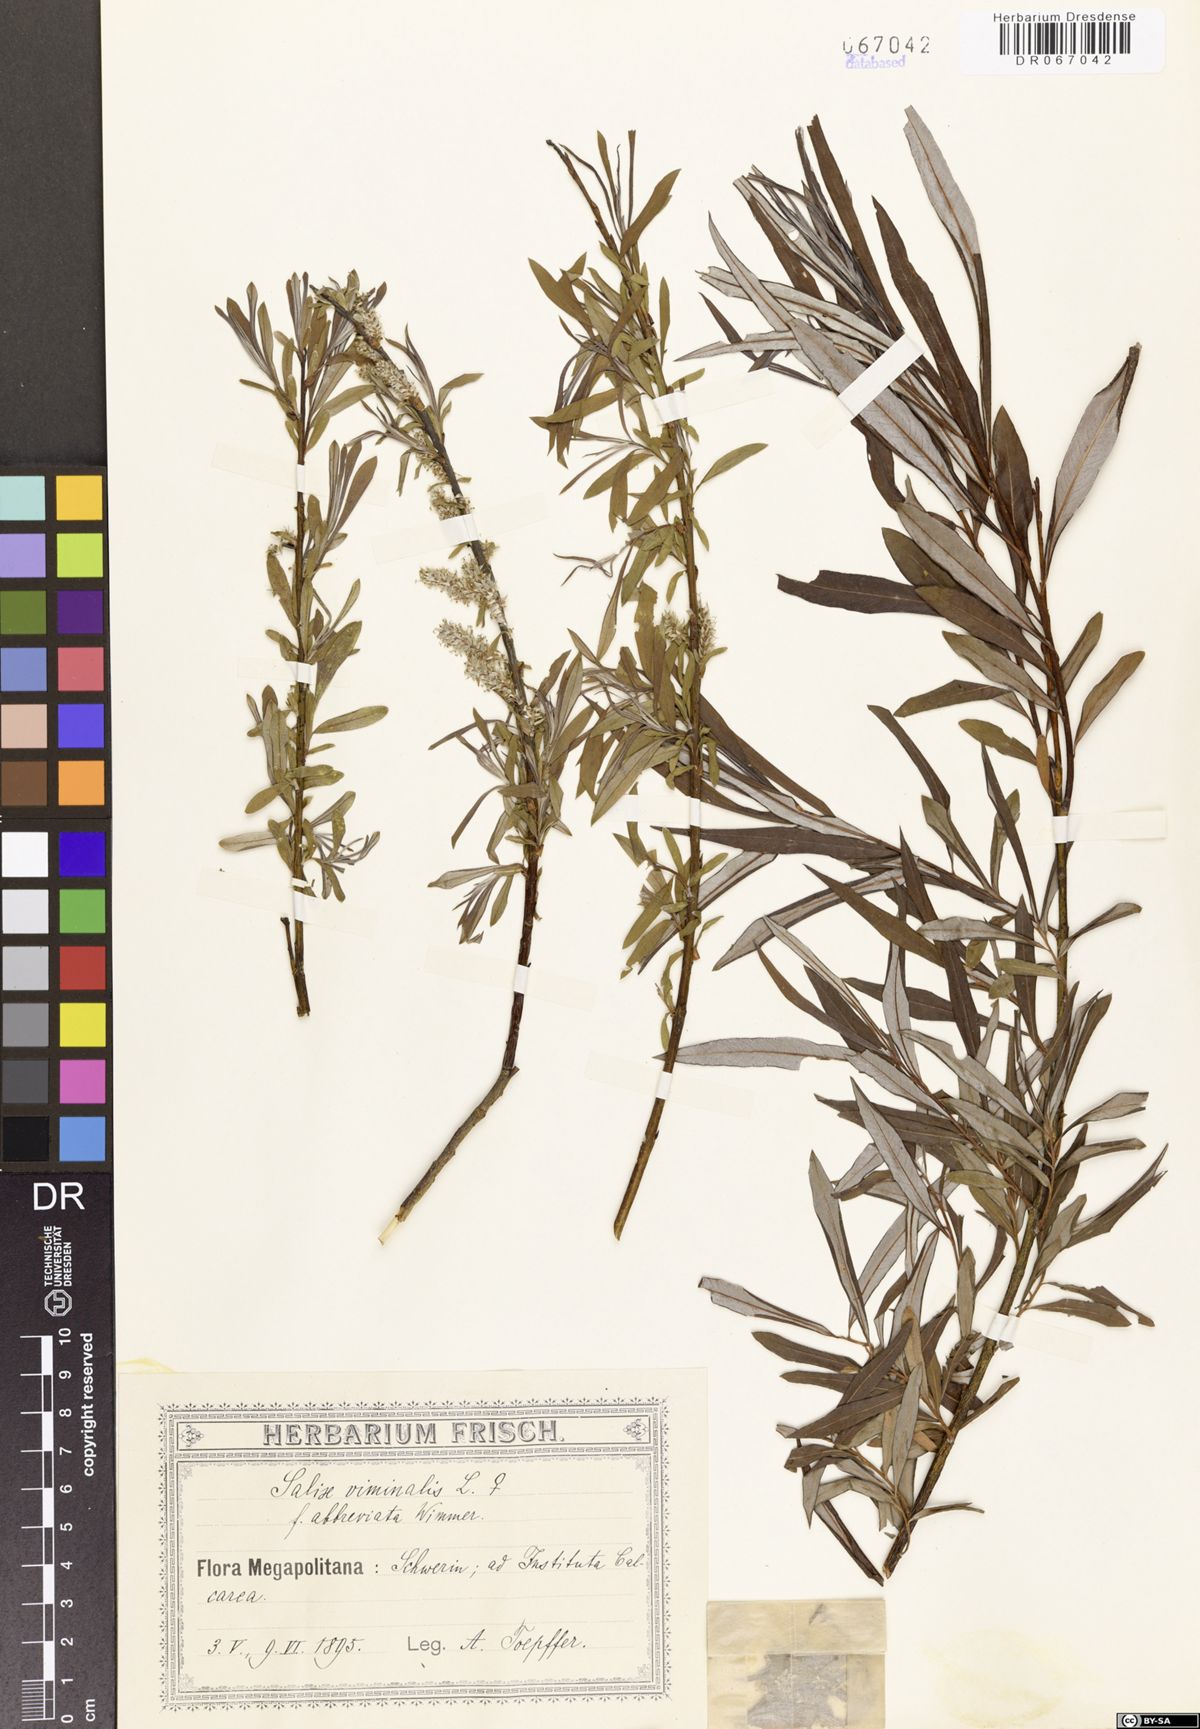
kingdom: Plantae
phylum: Tracheophyta
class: Magnoliopsida
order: Malpighiales
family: Salicaceae
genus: Salix
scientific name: Salix viminalis
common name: Osier
